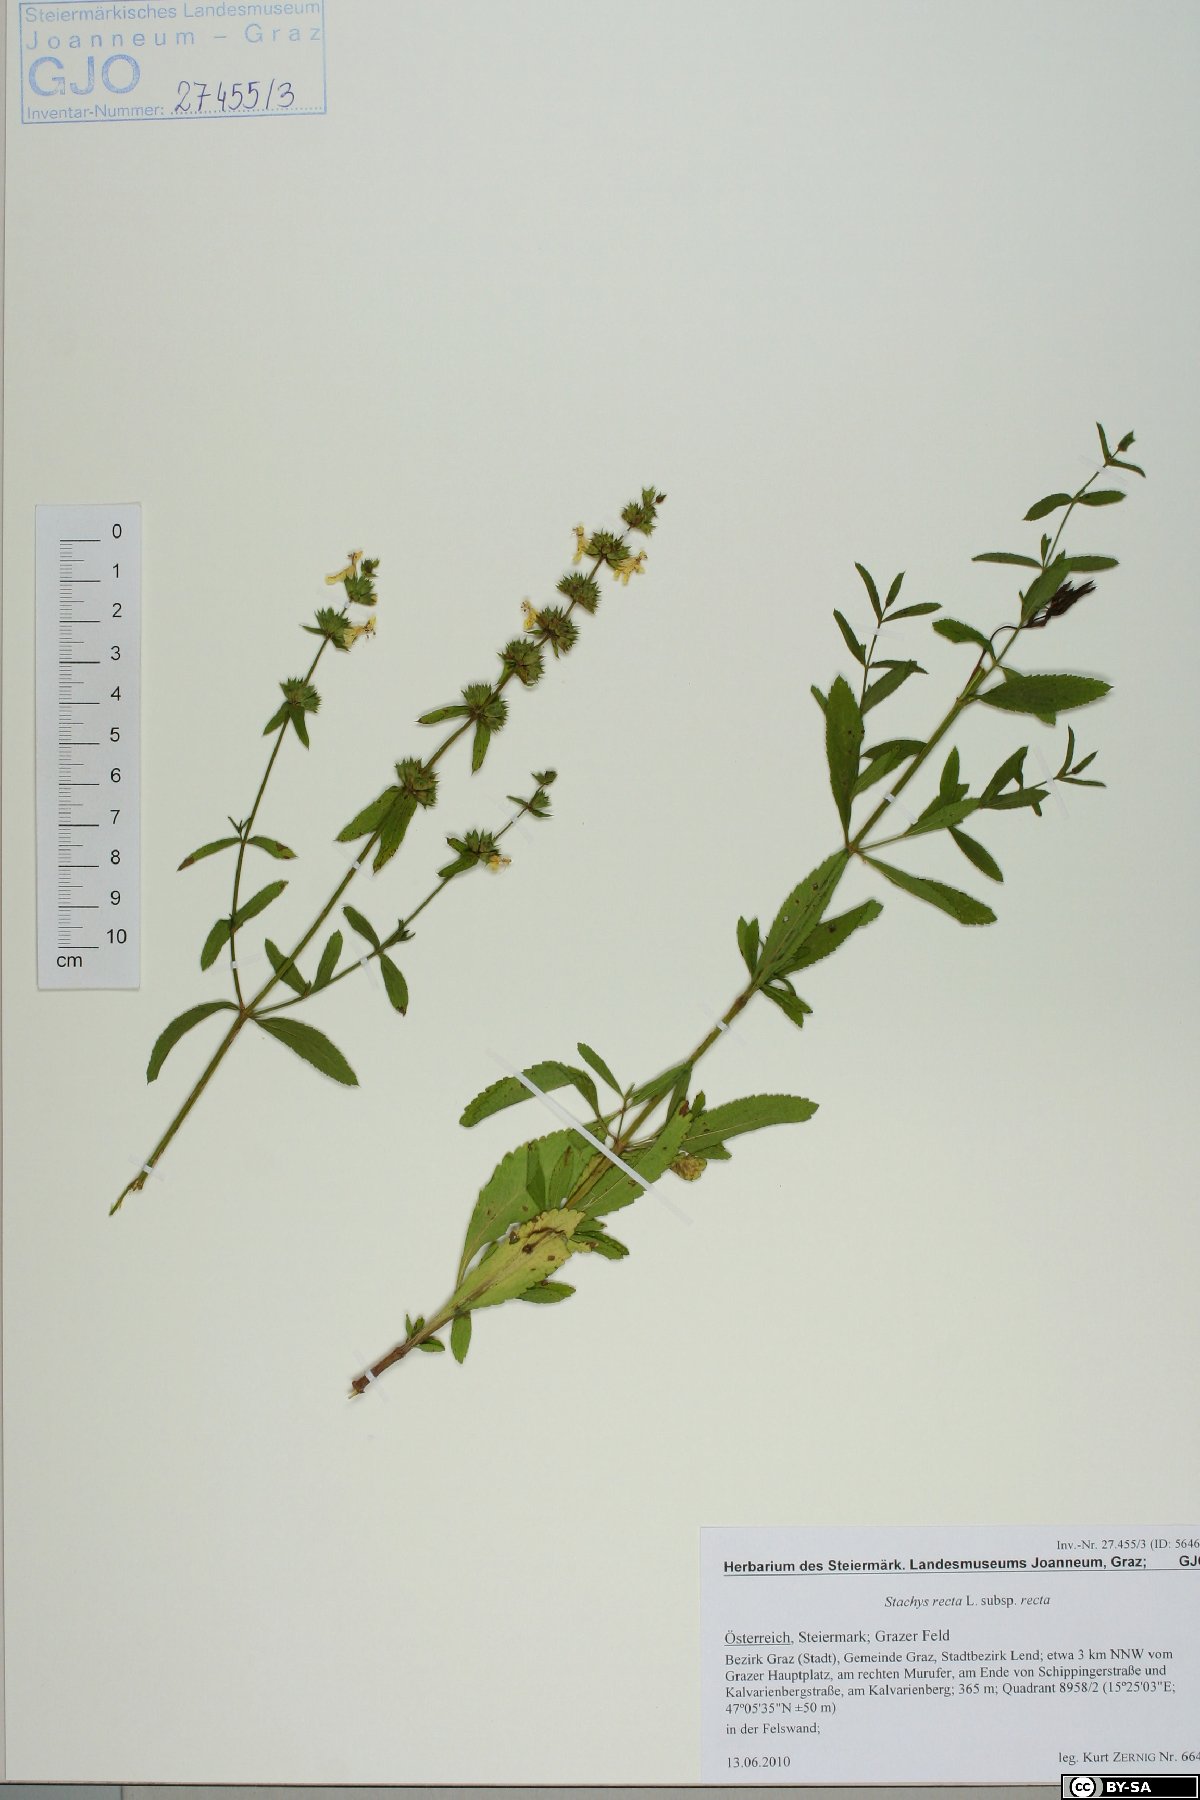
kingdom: Plantae
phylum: Tracheophyta
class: Magnoliopsida
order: Lamiales
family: Lamiaceae
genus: Stachys
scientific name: Stachys recta
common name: Perennial yellow-woundwort
